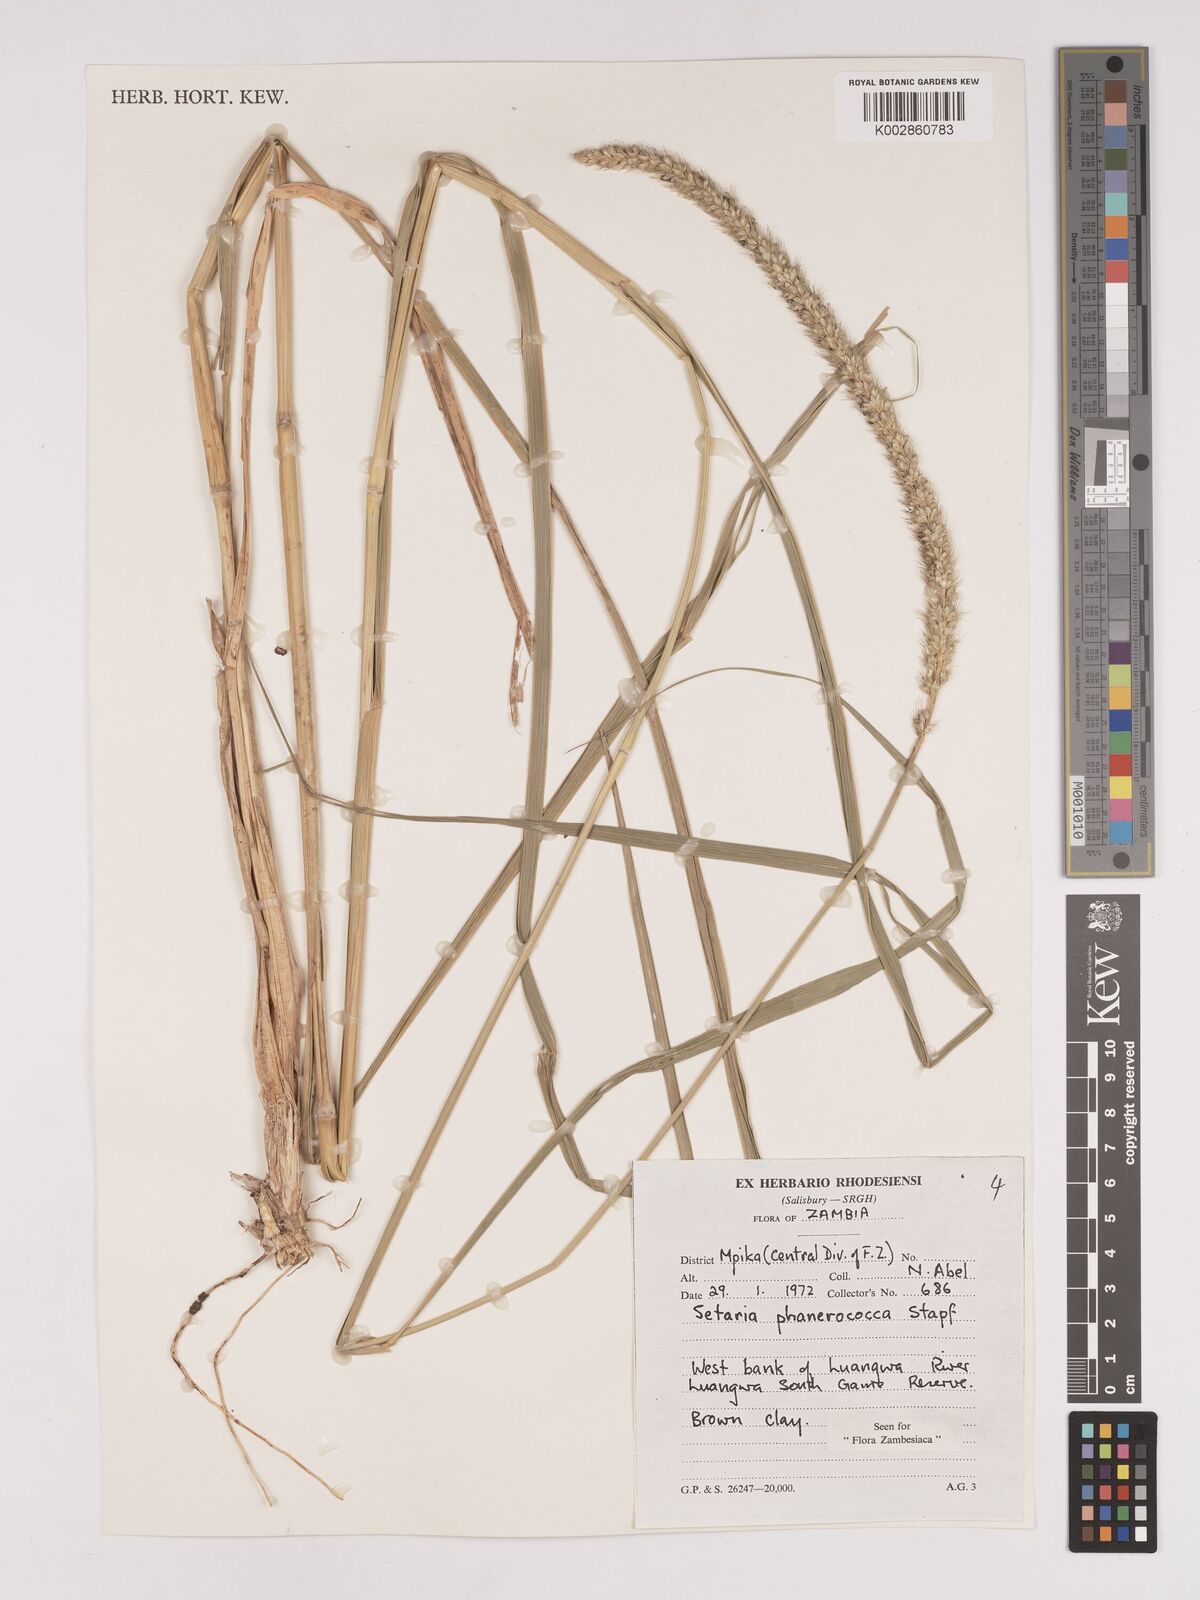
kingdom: Plantae
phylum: Tracheophyta
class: Liliopsida
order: Poales
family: Poaceae
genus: Setaria
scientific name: Setaria incrassata
